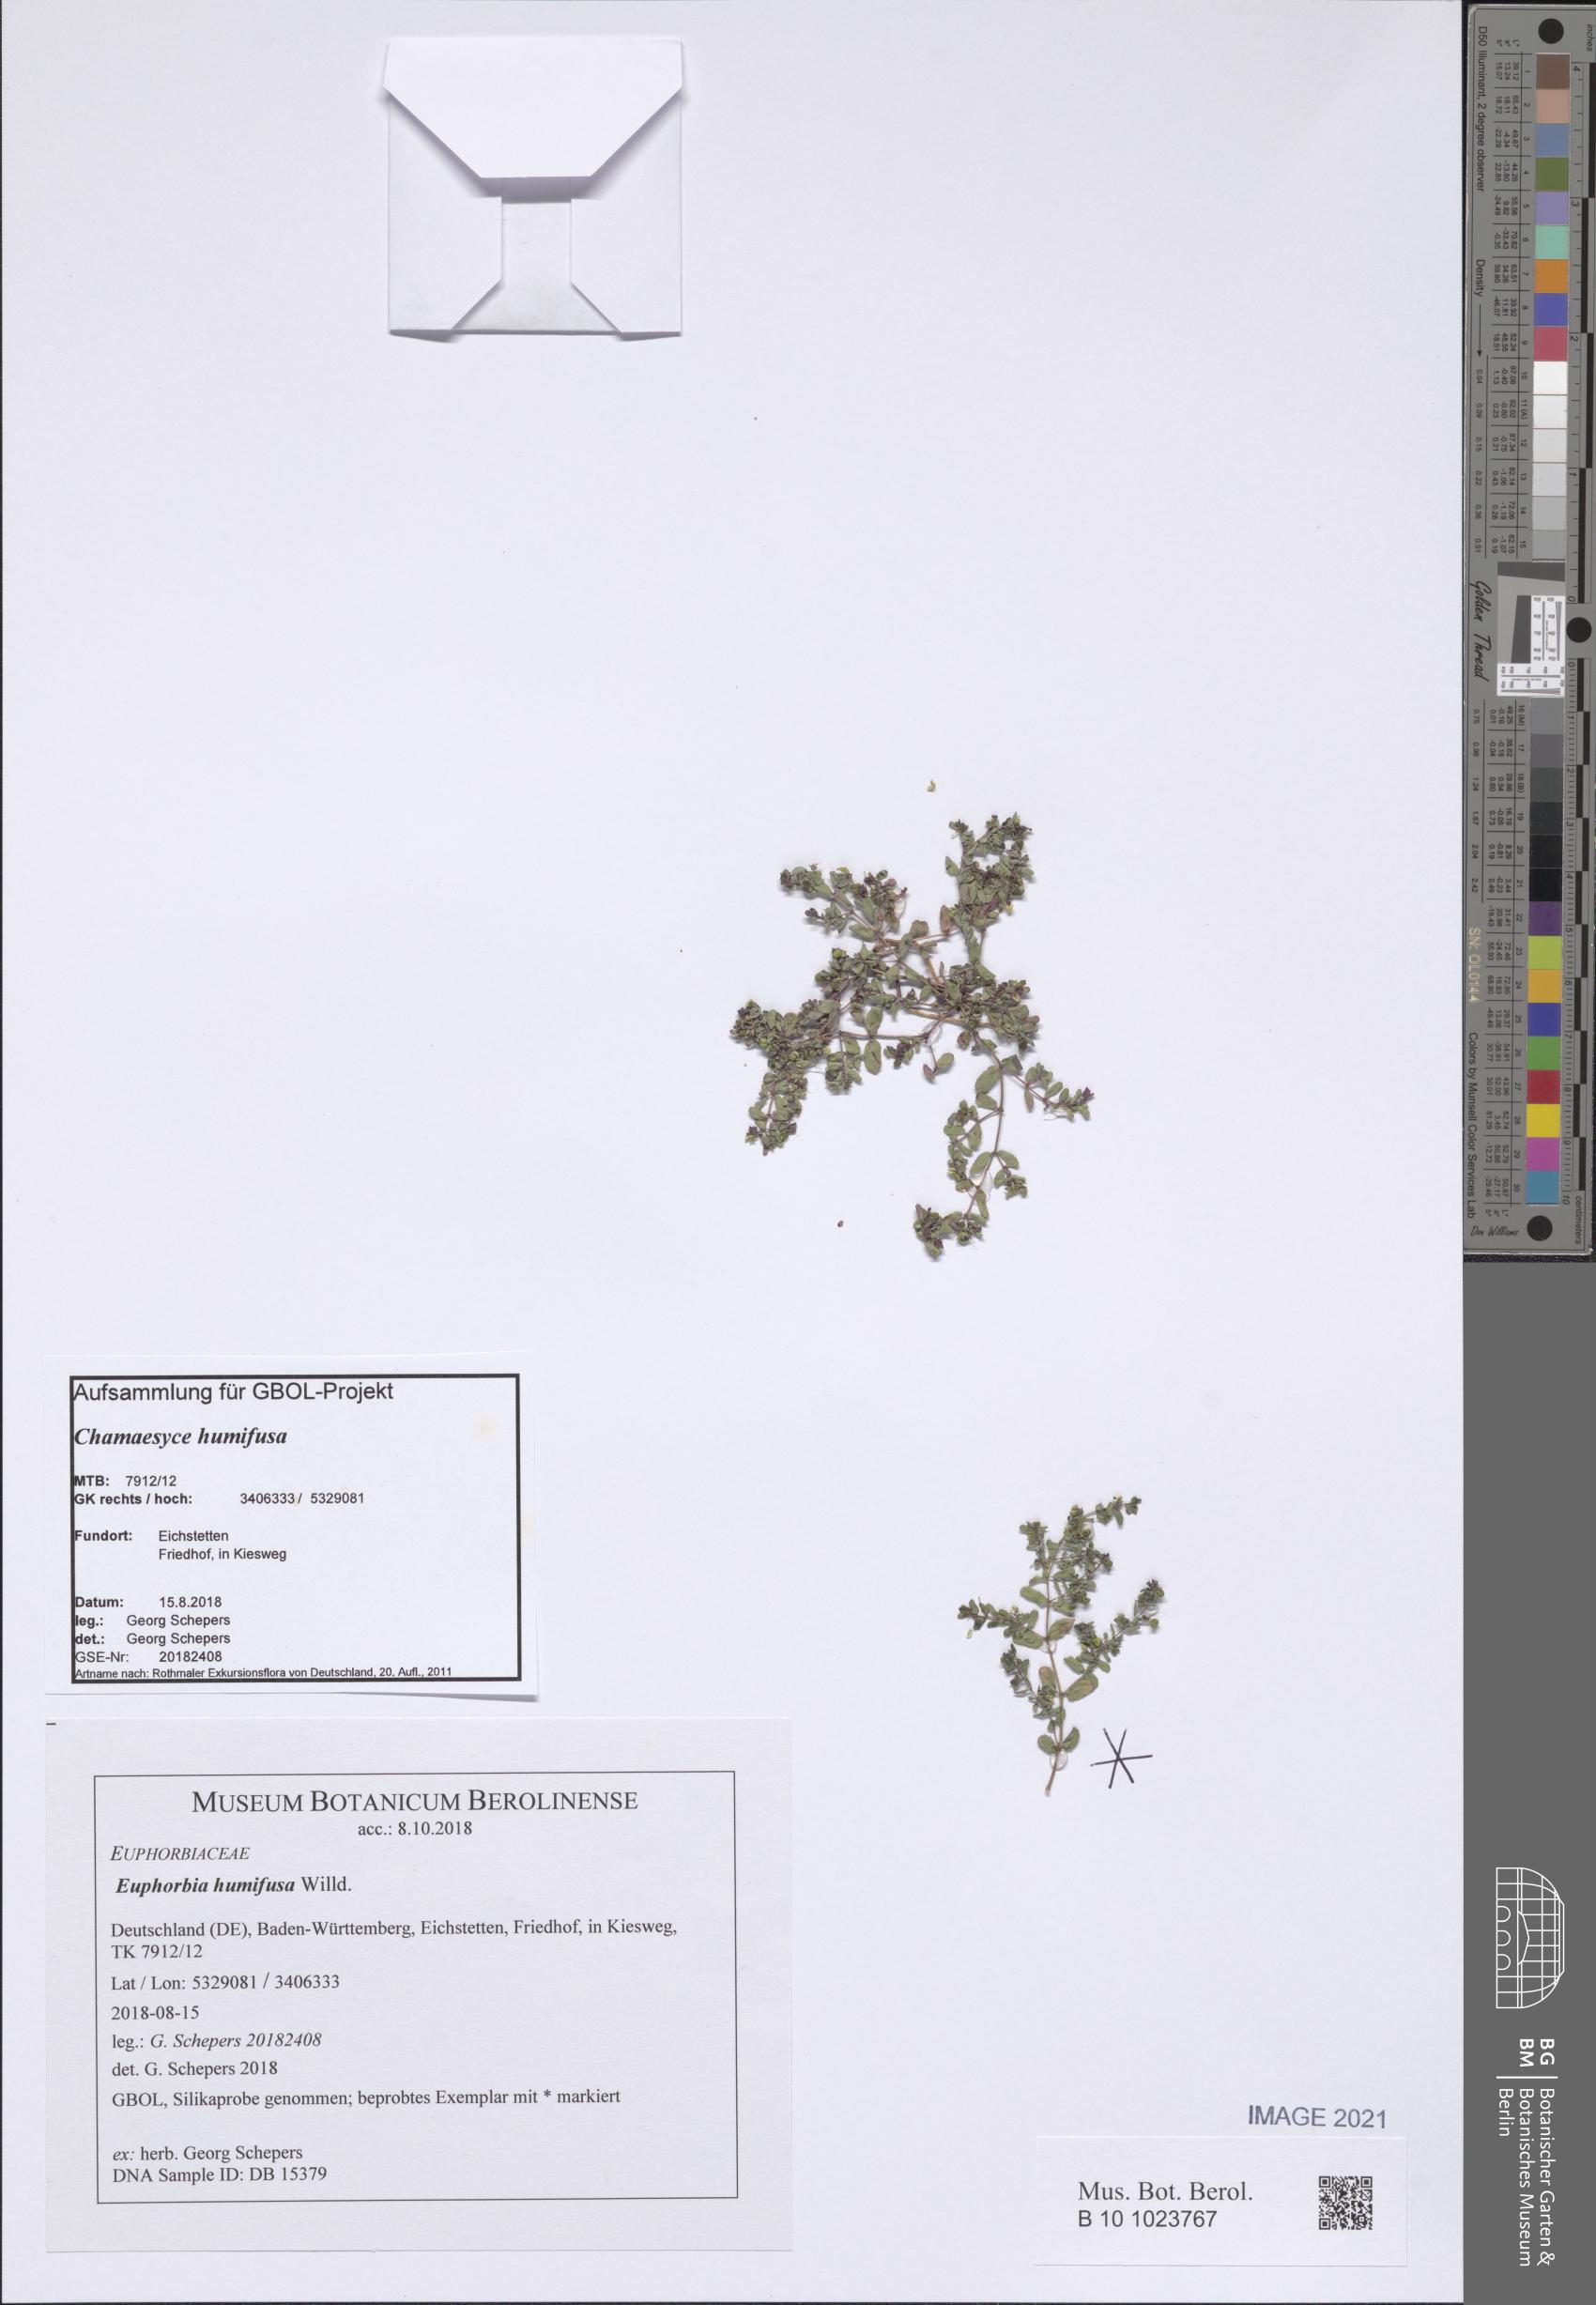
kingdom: Plantae
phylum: Tracheophyta
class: Magnoliopsida
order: Malpighiales
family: Euphorbiaceae
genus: Euphorbia
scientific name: Euphorbia humifusa
